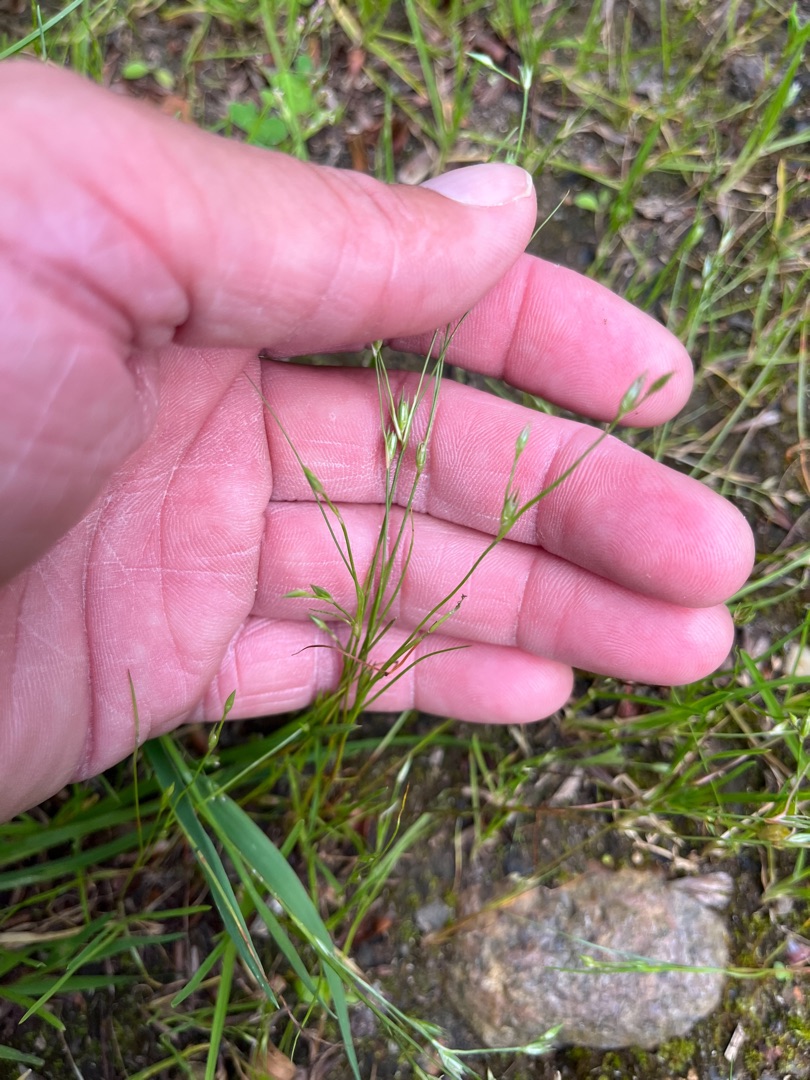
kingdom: Plantae
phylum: Tracheophyta
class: Liliopsida
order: Poales
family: Juncaceae
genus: Juncus
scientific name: Juncus bufonius
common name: Tudse-siv
